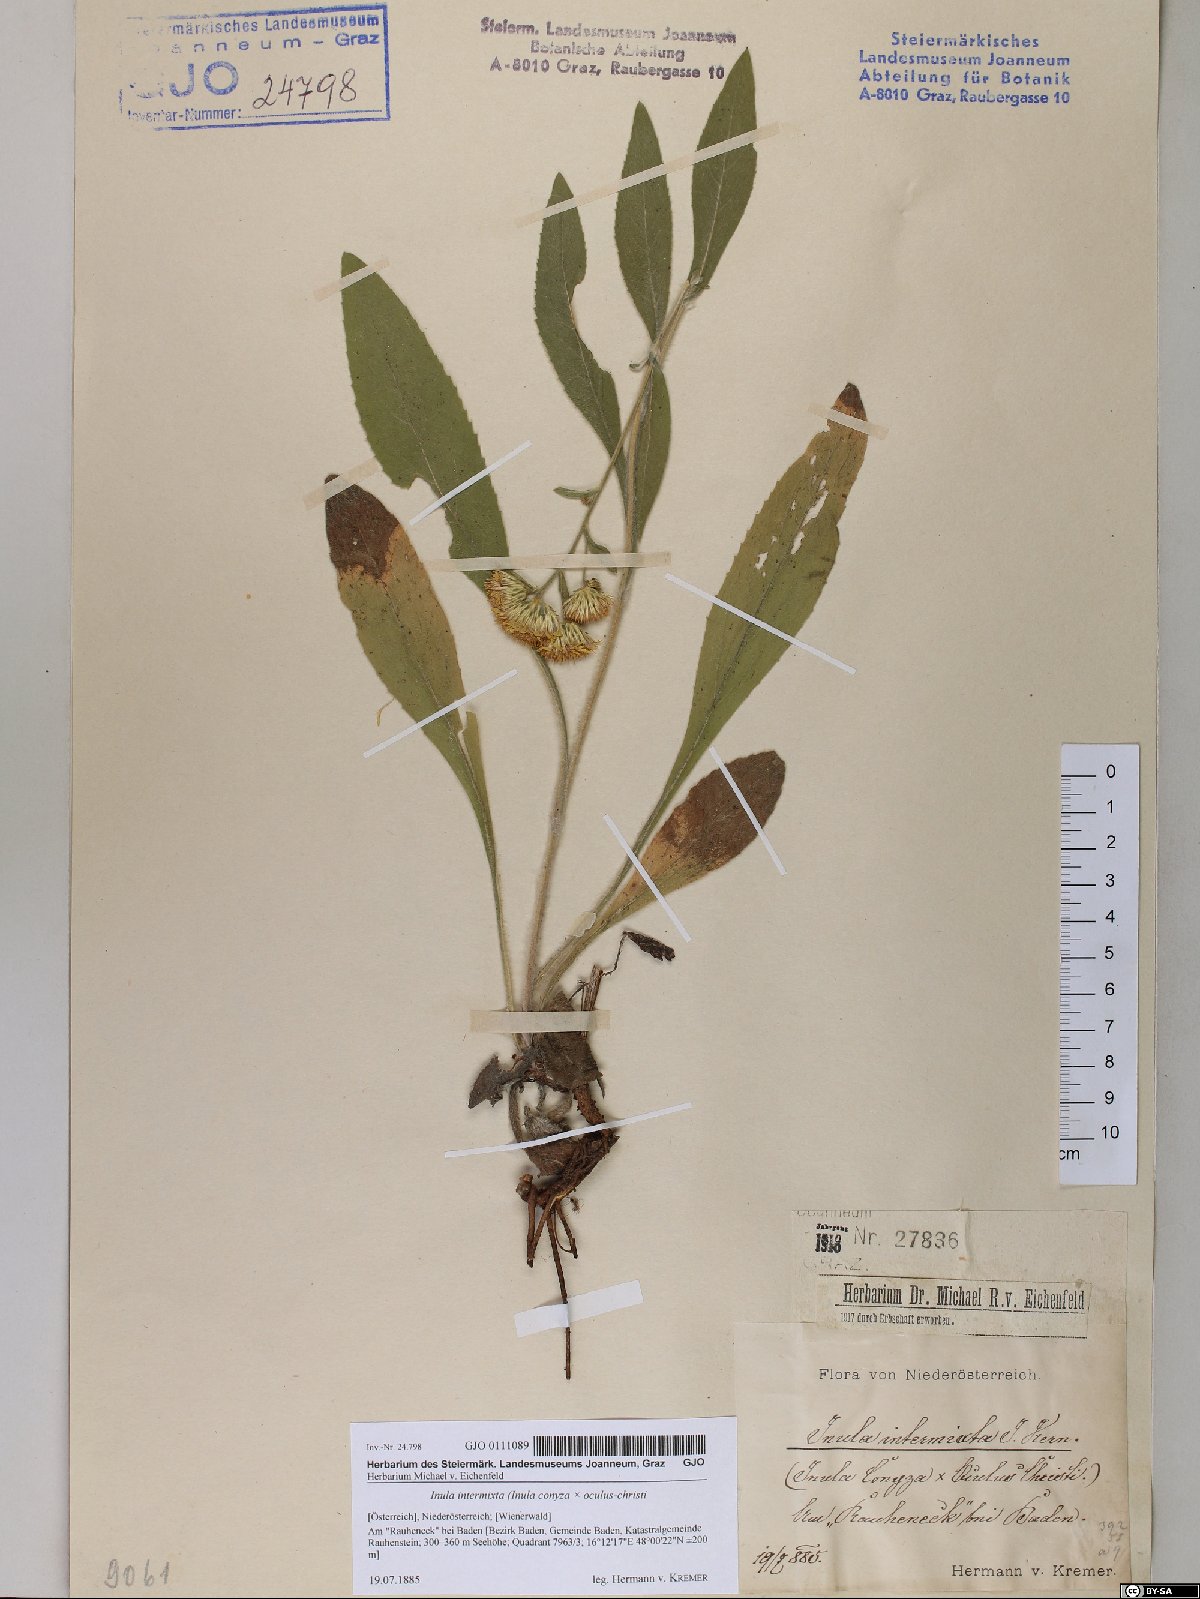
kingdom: Plantae
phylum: Tracheophyta
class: Magnoliopsida
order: Asterales
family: Asteraceae
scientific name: Asteraceae
